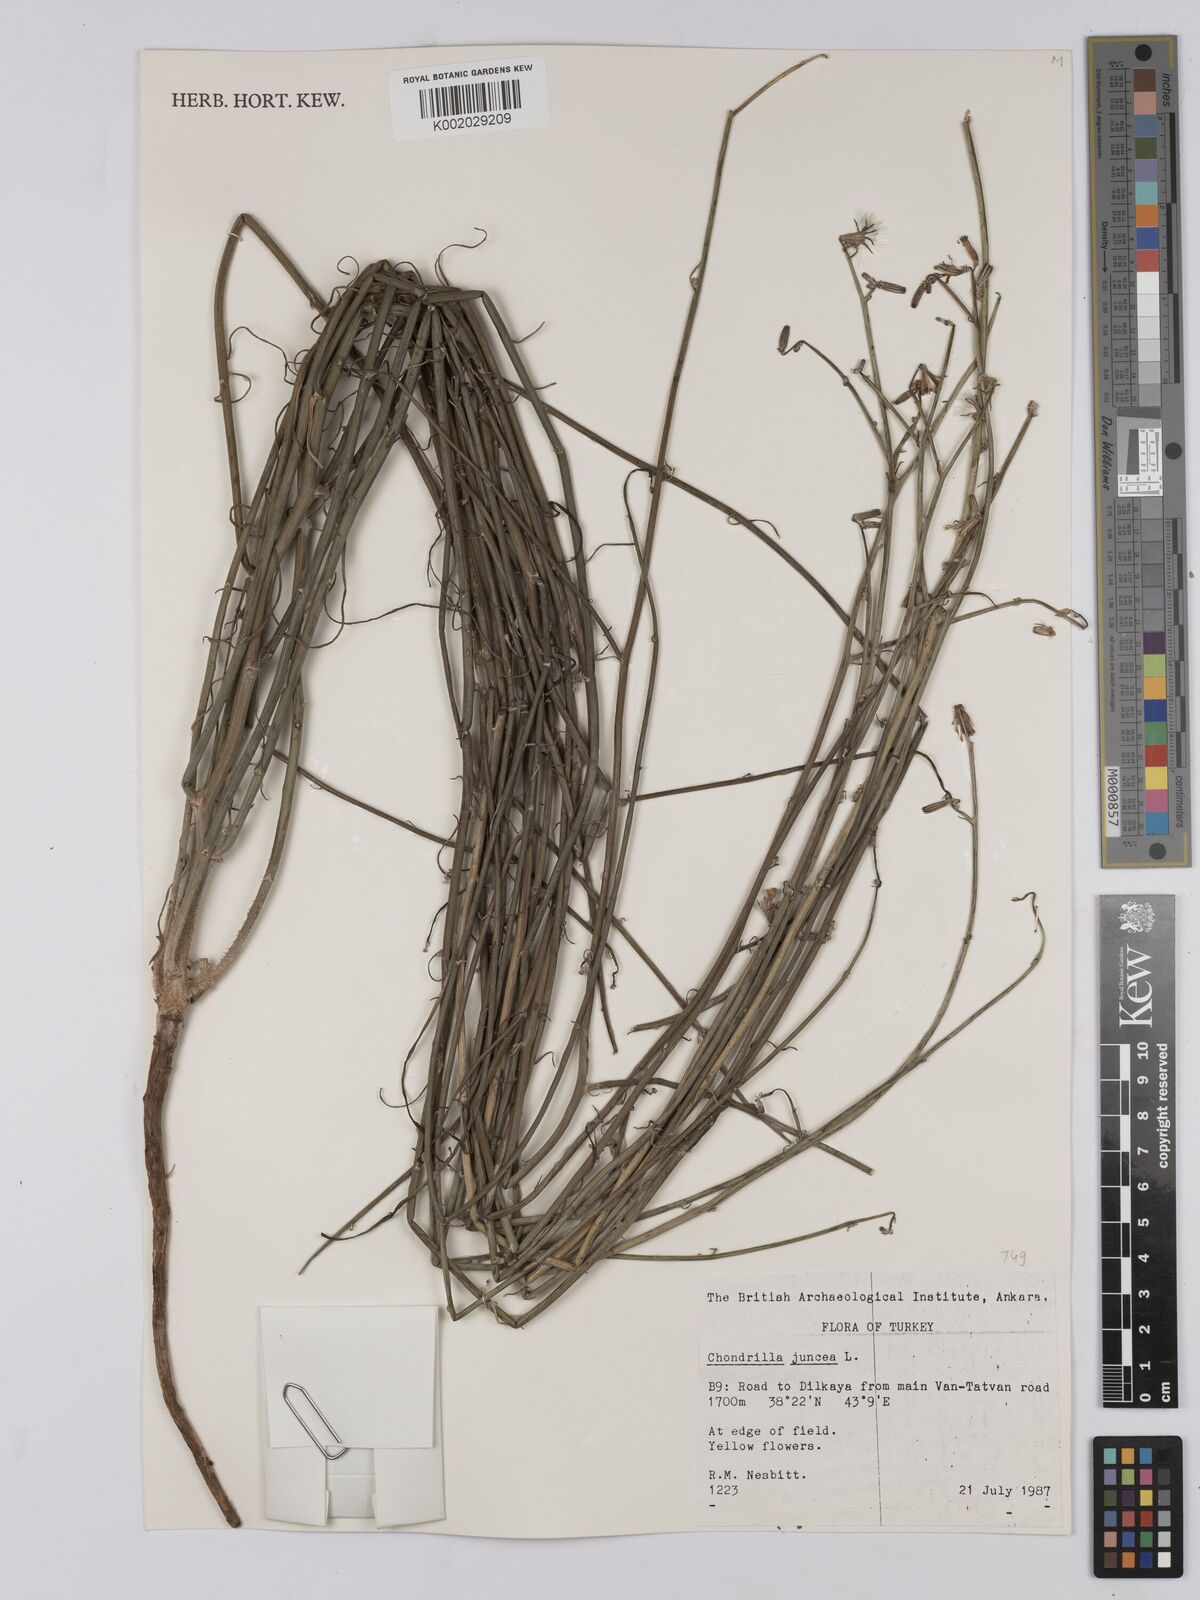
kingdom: Plantae
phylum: Tracheophyta
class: Magnoliopsida
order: Asterales
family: Asteraceae
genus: Chondrilla
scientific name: Chondrilla juncea
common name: Skeleton weed
